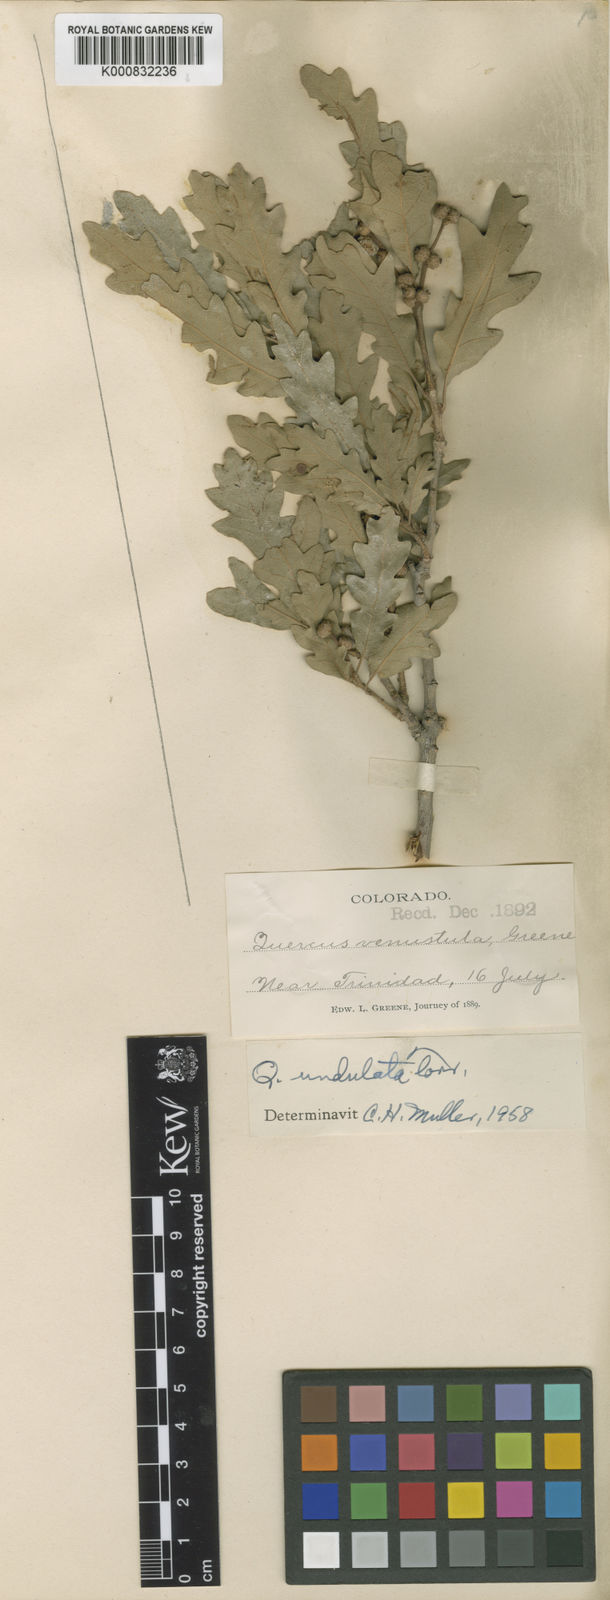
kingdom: Plantae
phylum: Tracheophyta
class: Magnoliopsida
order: Fagales
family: Fagaceae
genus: Quercus
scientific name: Quercus undulata
